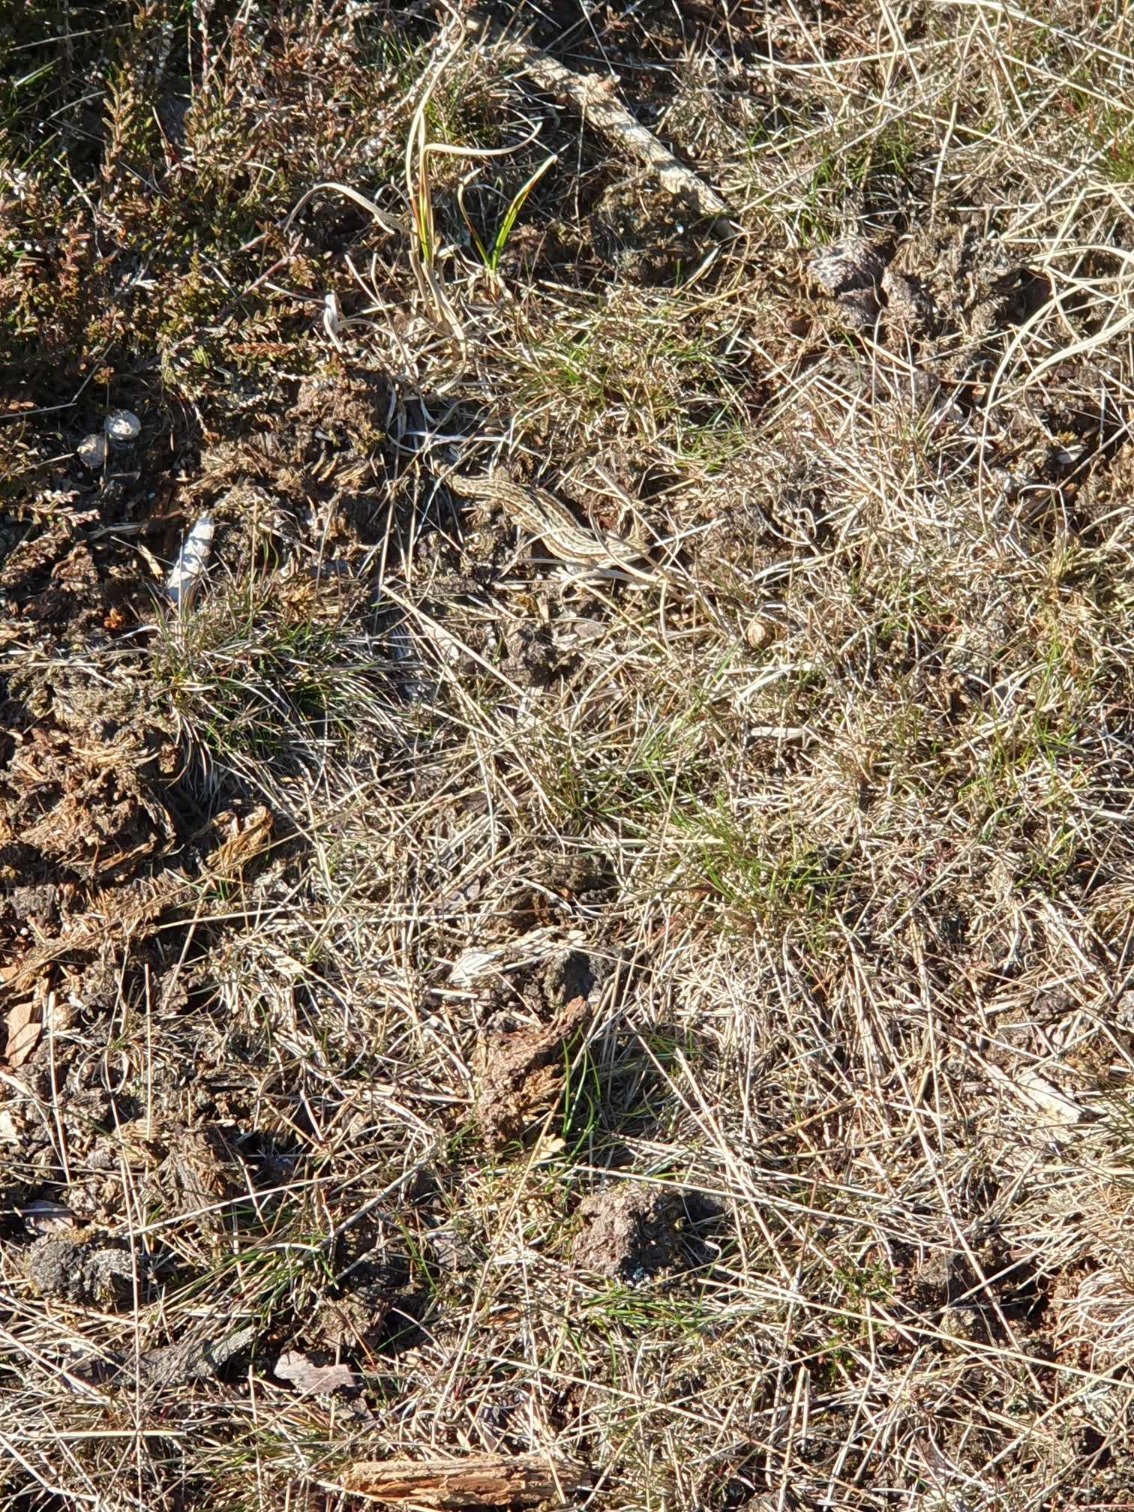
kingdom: Animalia
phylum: Chordata
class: Squamata
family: Lacertidae
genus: Zootoca
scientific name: Zootoca vivipara
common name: Skovfirben
